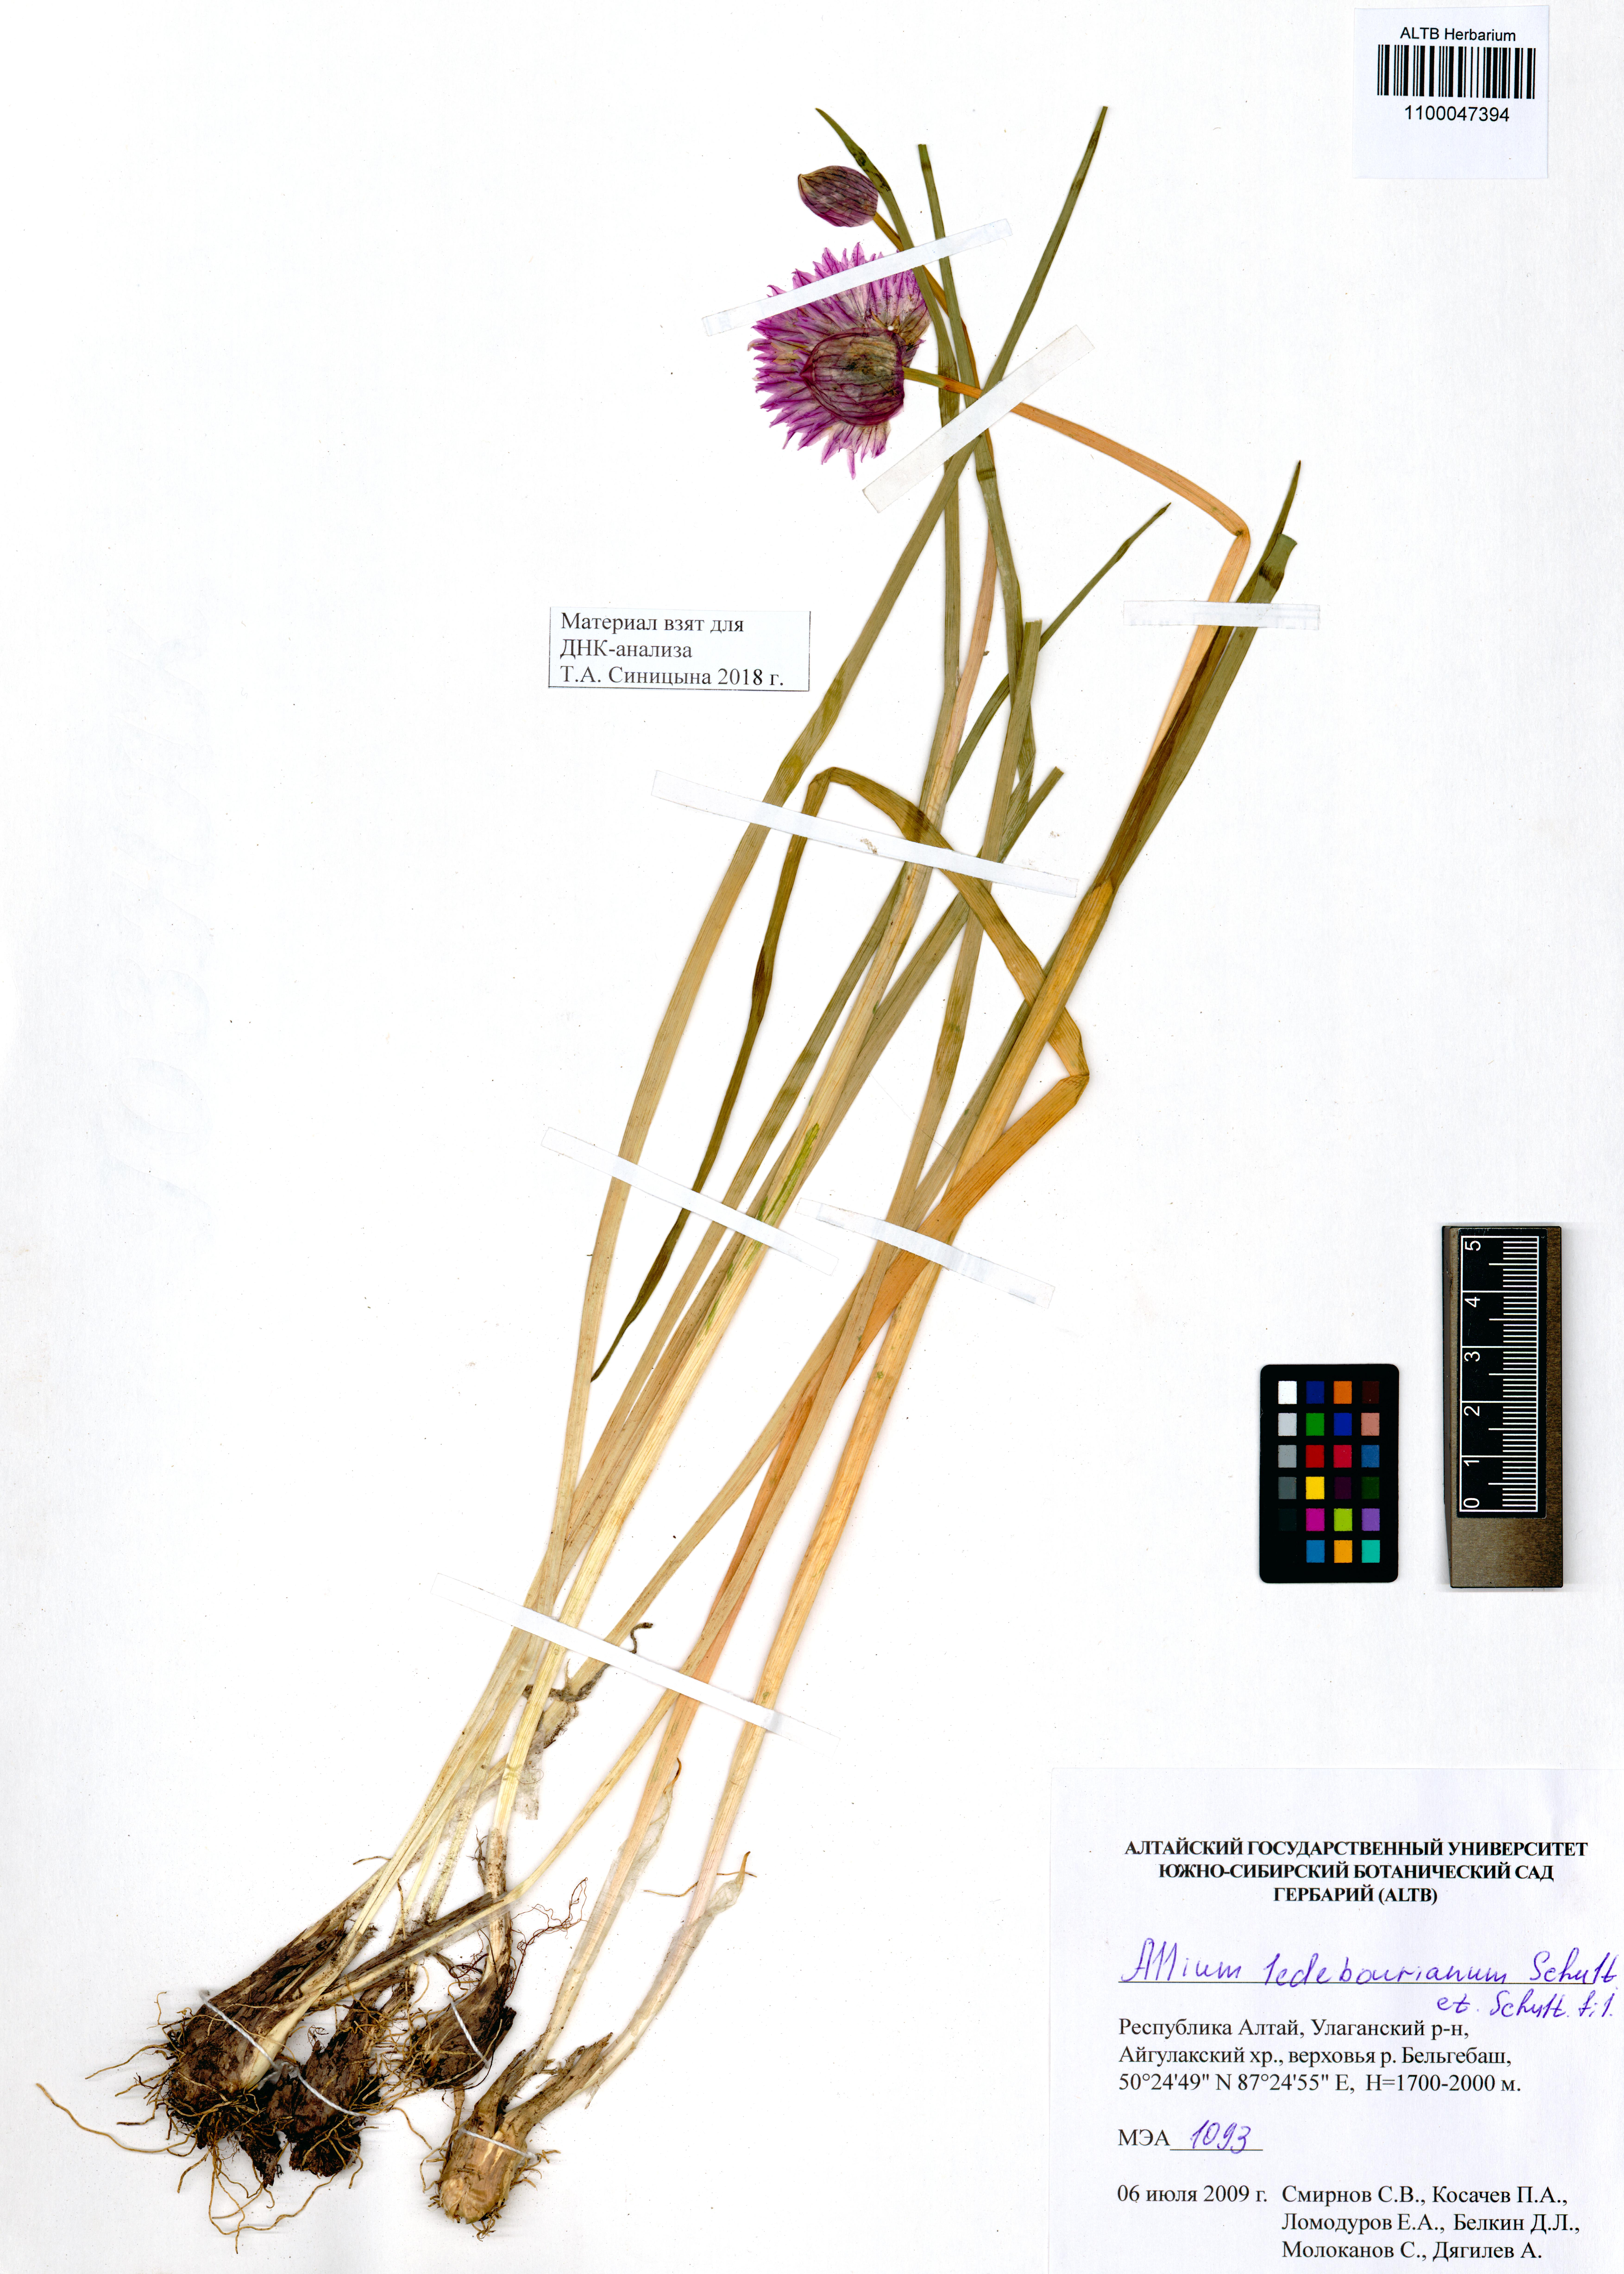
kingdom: Plantae
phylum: Tracheophyta
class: Liliopsida
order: Asparagales
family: Amaryllidaceae
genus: Allium
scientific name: Allium ledebourianum
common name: Ledebour chive
